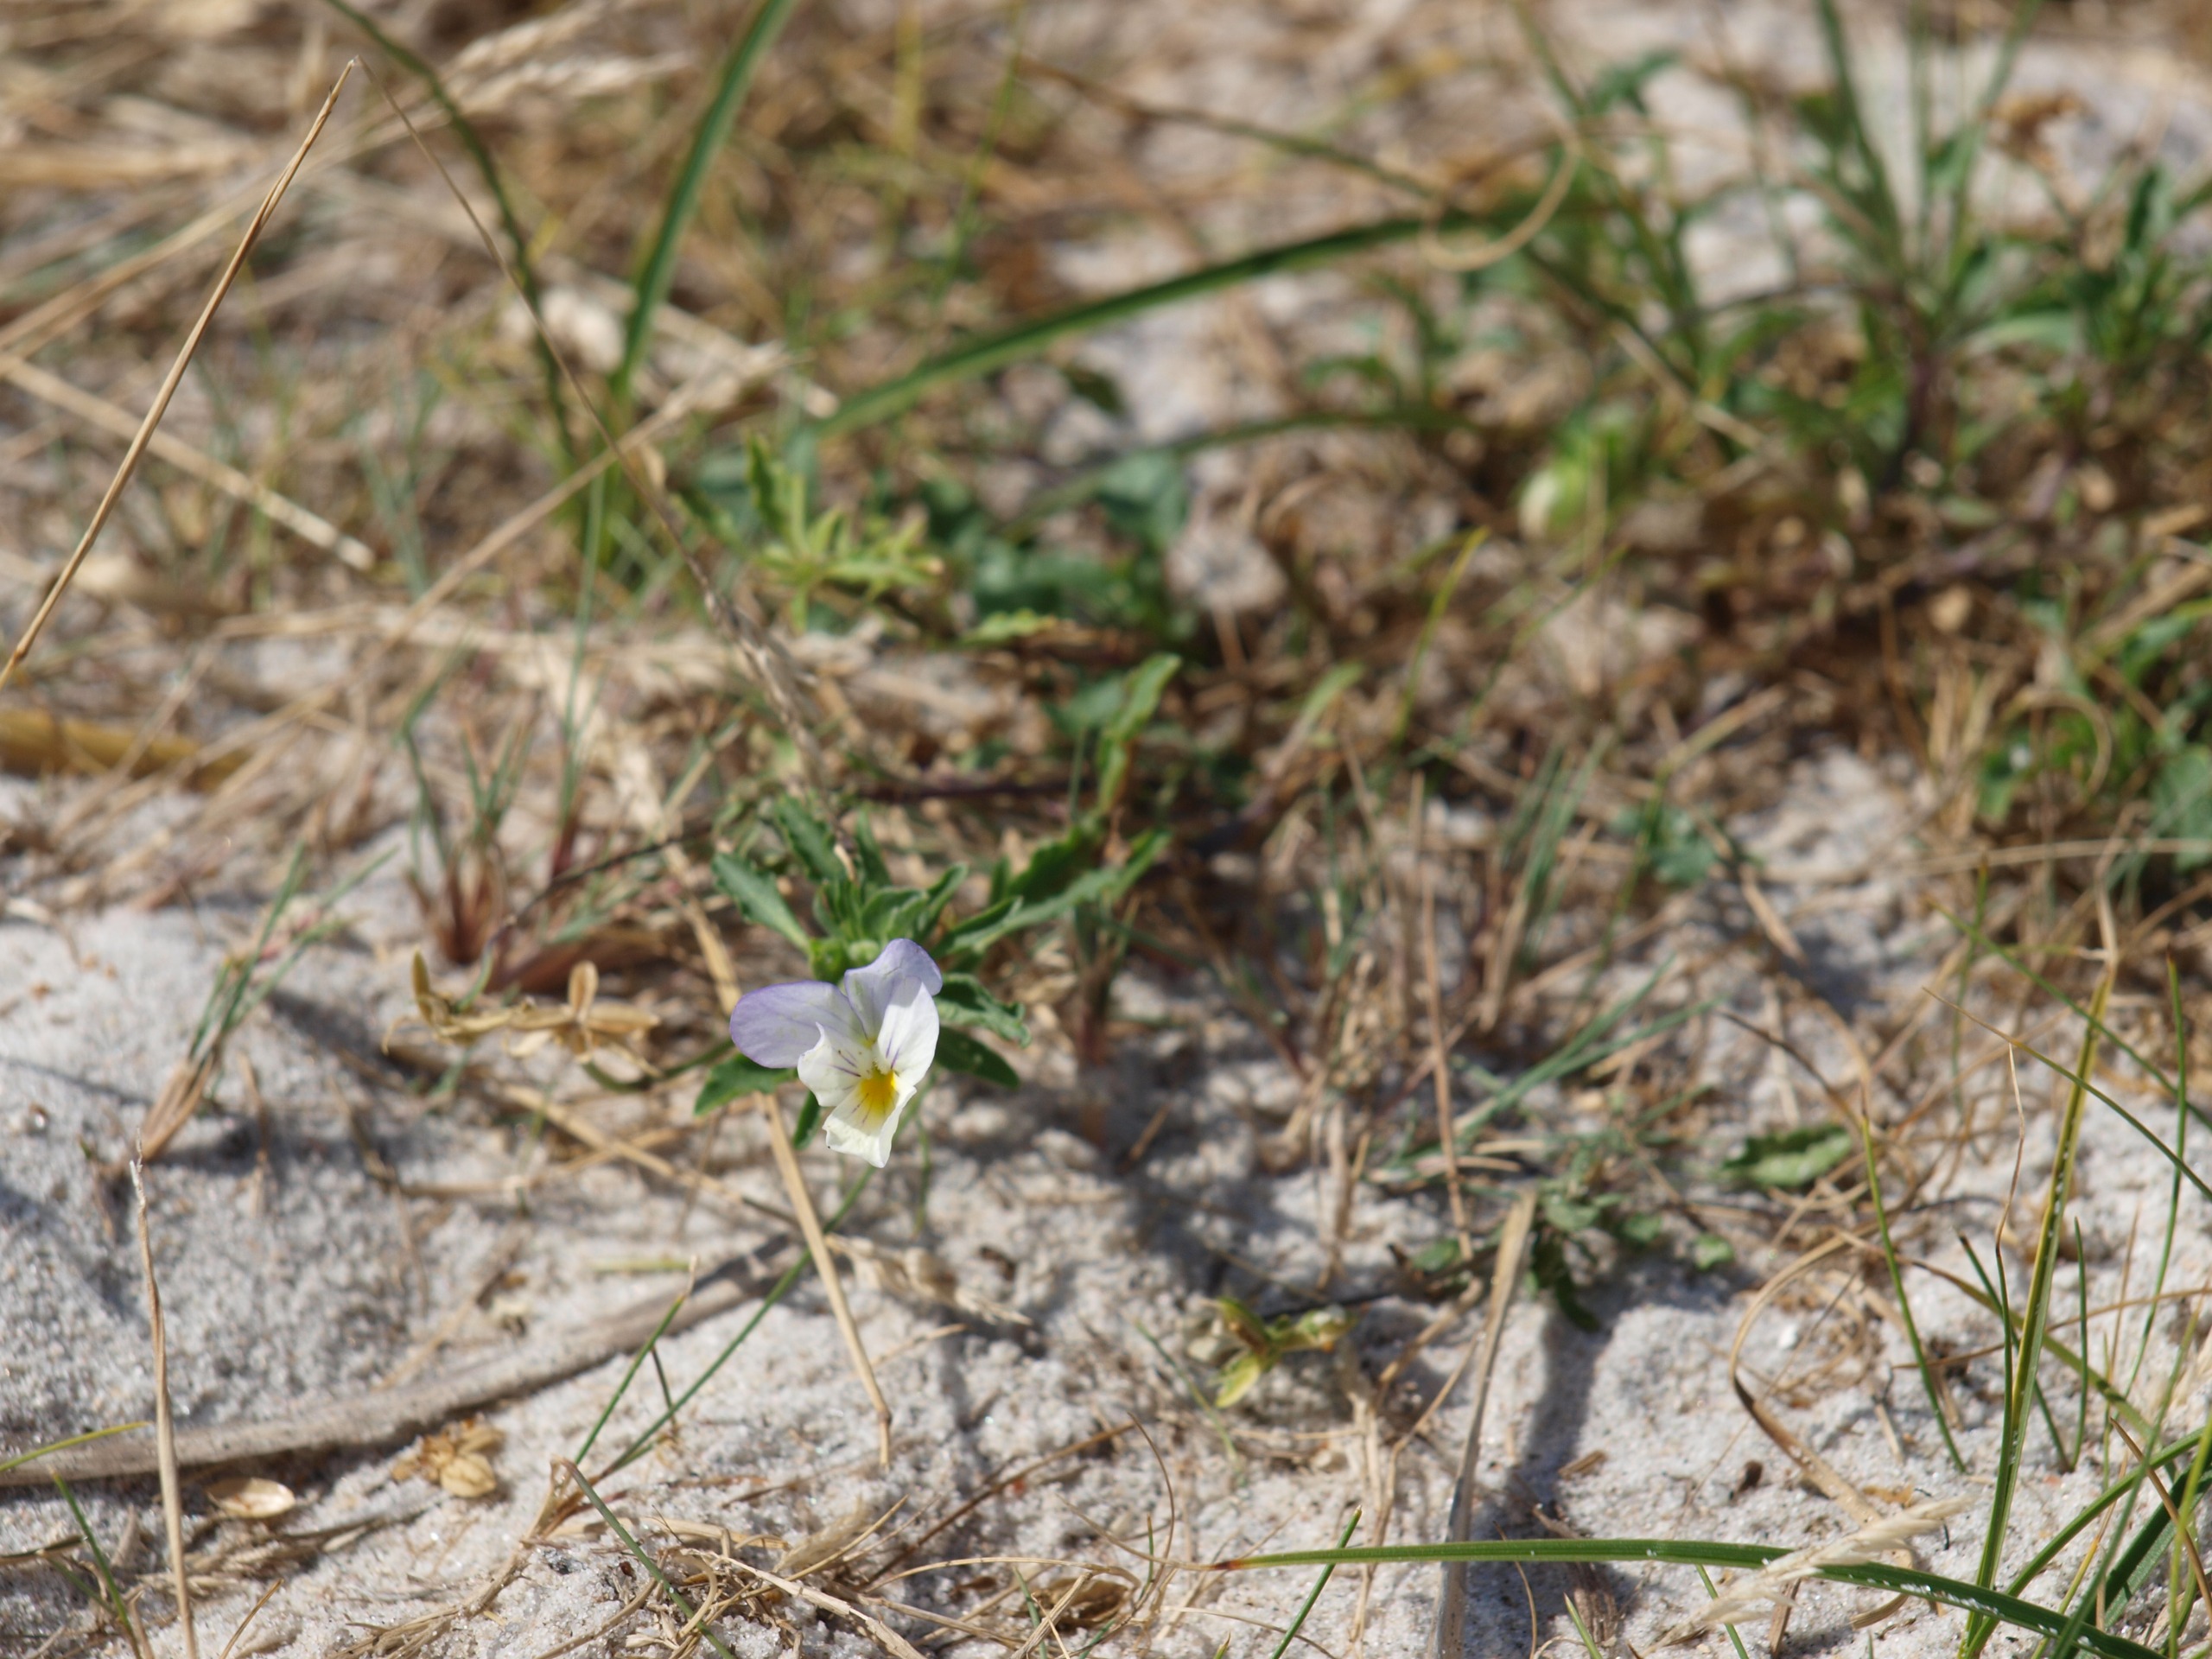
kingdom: Plantae
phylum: Tracheophyta
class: Magnoliopsida
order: Malpighiales
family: Violaceae
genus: Viola
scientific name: Viola tricolor
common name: Stedmoderblomst
